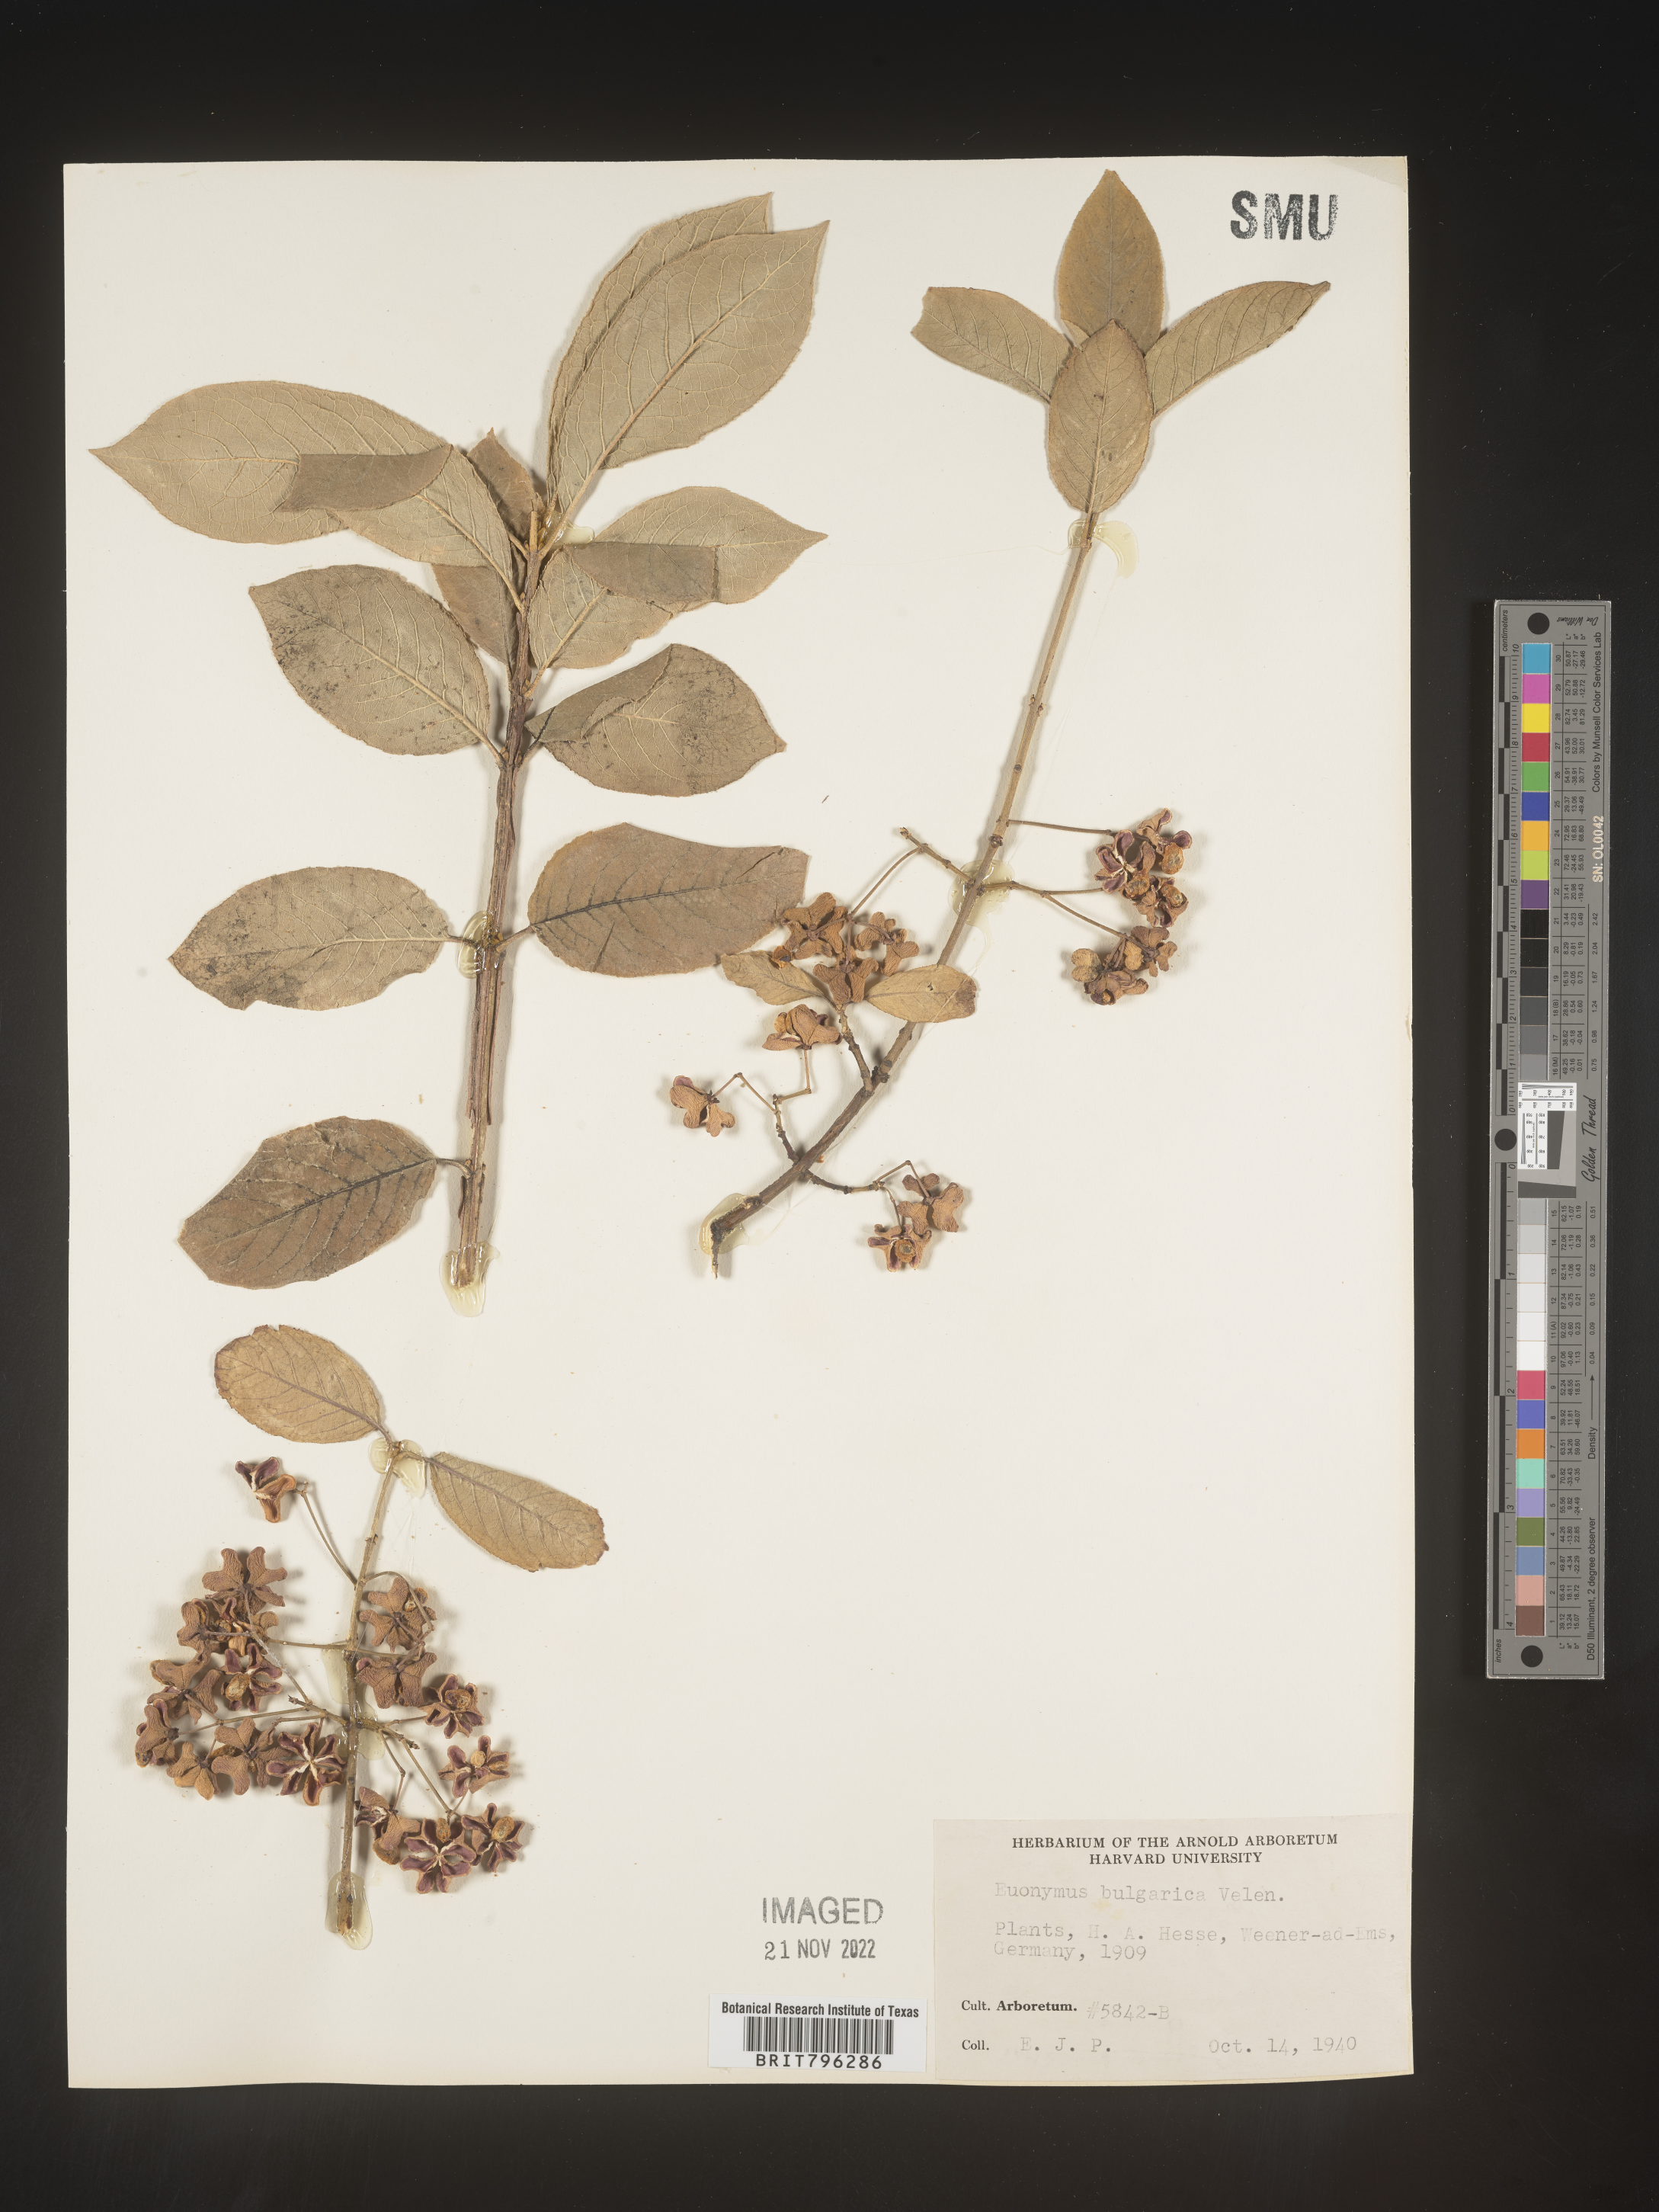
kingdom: Plantae
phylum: Tracheophyta
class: Magnoliopsida
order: Celastrales
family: Celastraceae
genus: Euonymus
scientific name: Euonymus
